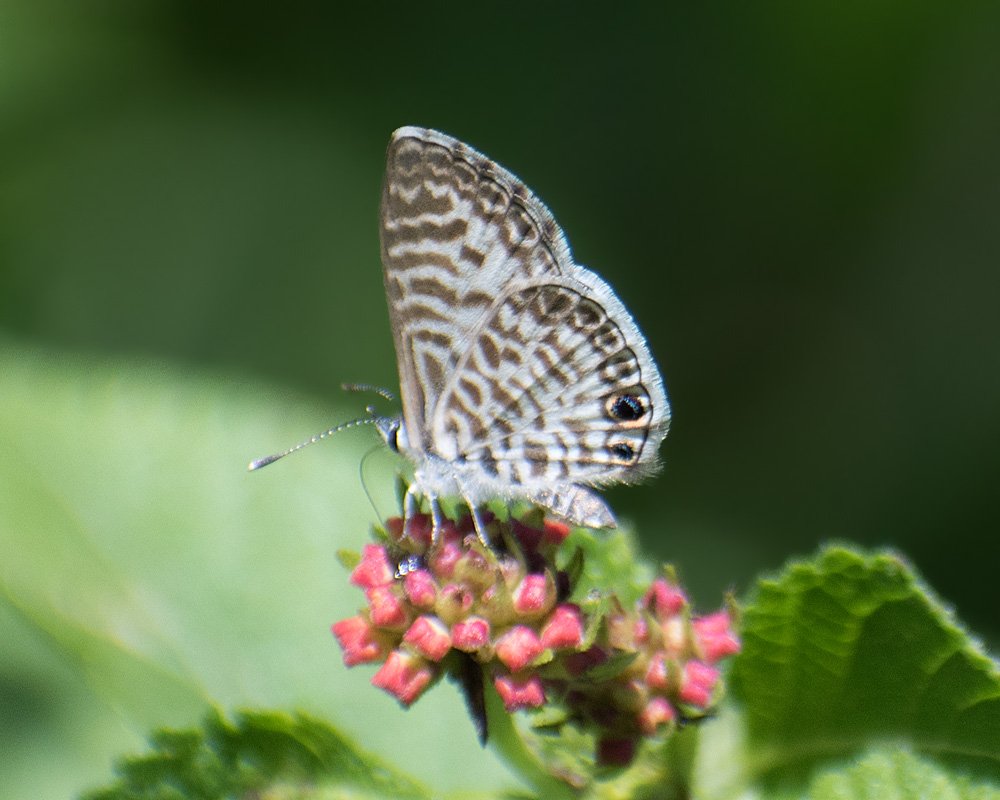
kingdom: Animalia
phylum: Arthropoda
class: Insecta
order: Lepidoptera
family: Lycaenidae
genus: Leptotes
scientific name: Leptotes cassius
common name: Cassius Blue
